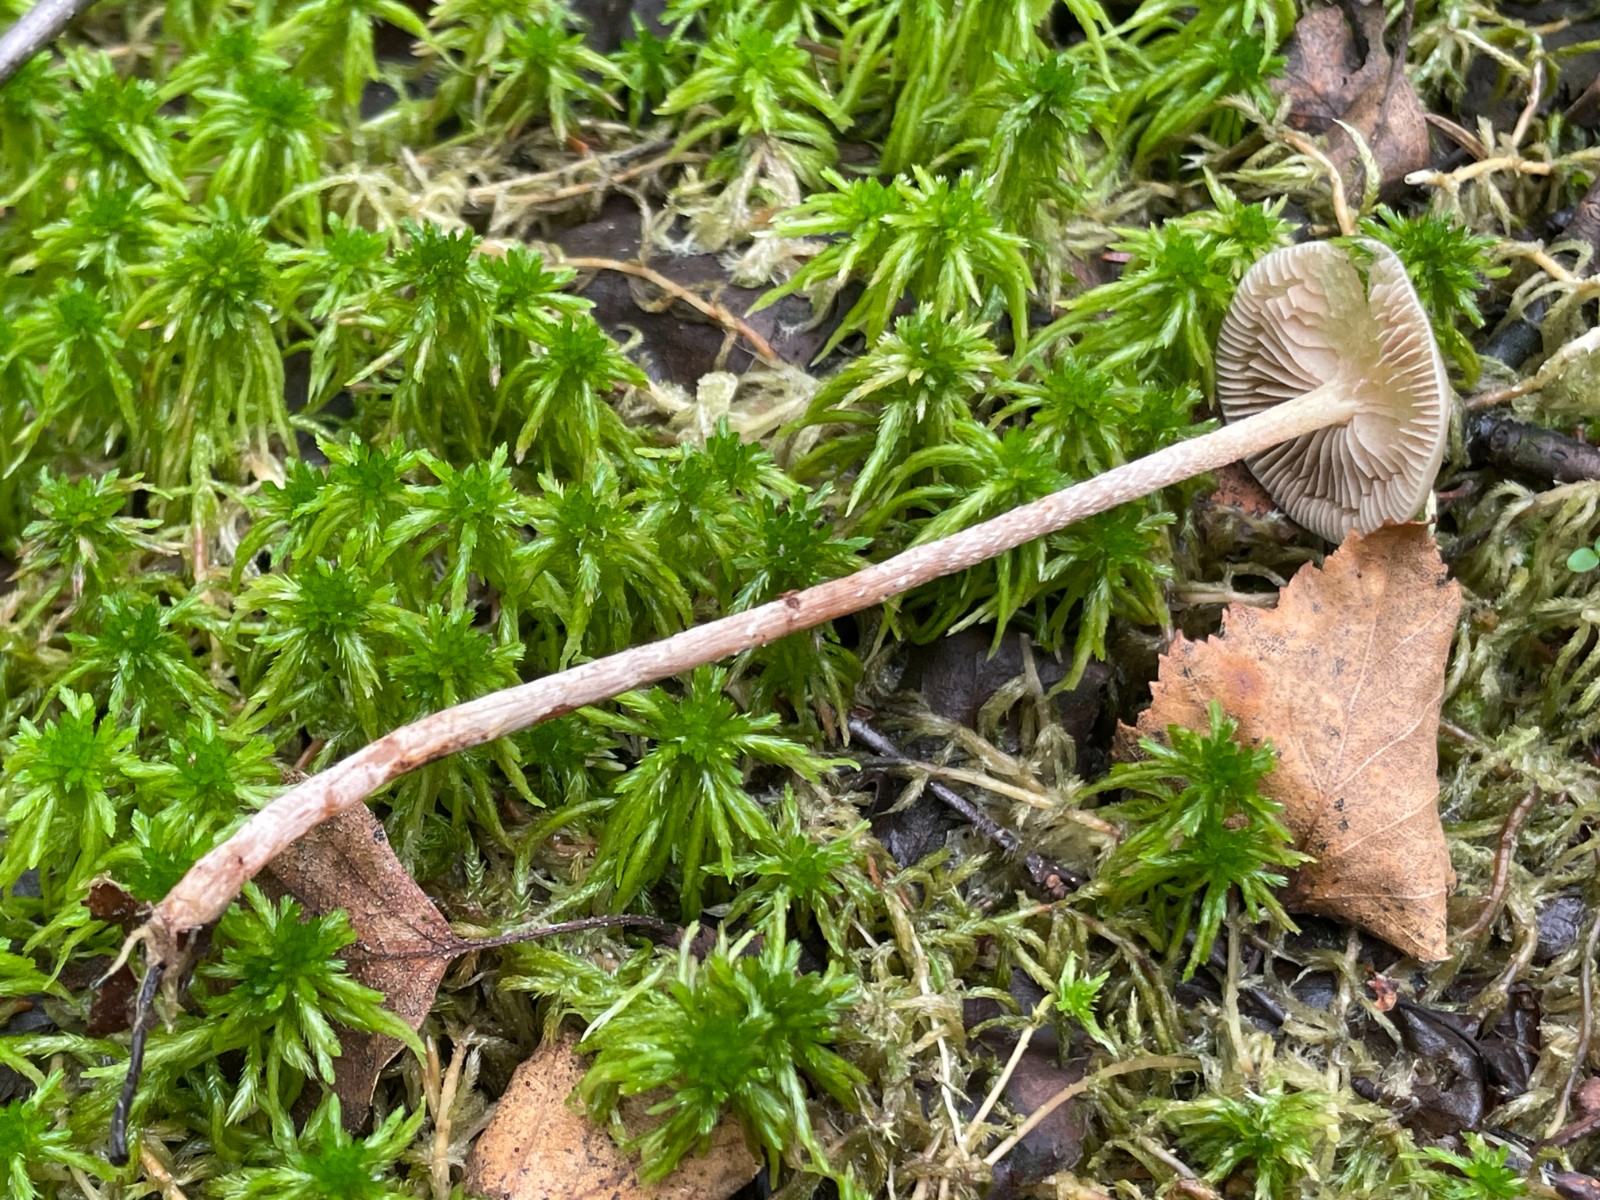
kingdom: Fungi
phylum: Basidiomycota
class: Agaricomycetes
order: Agaricales
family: Strophariaceae
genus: Hypholoma
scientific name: Hypholoma myosotis
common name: slimet svovlhat
